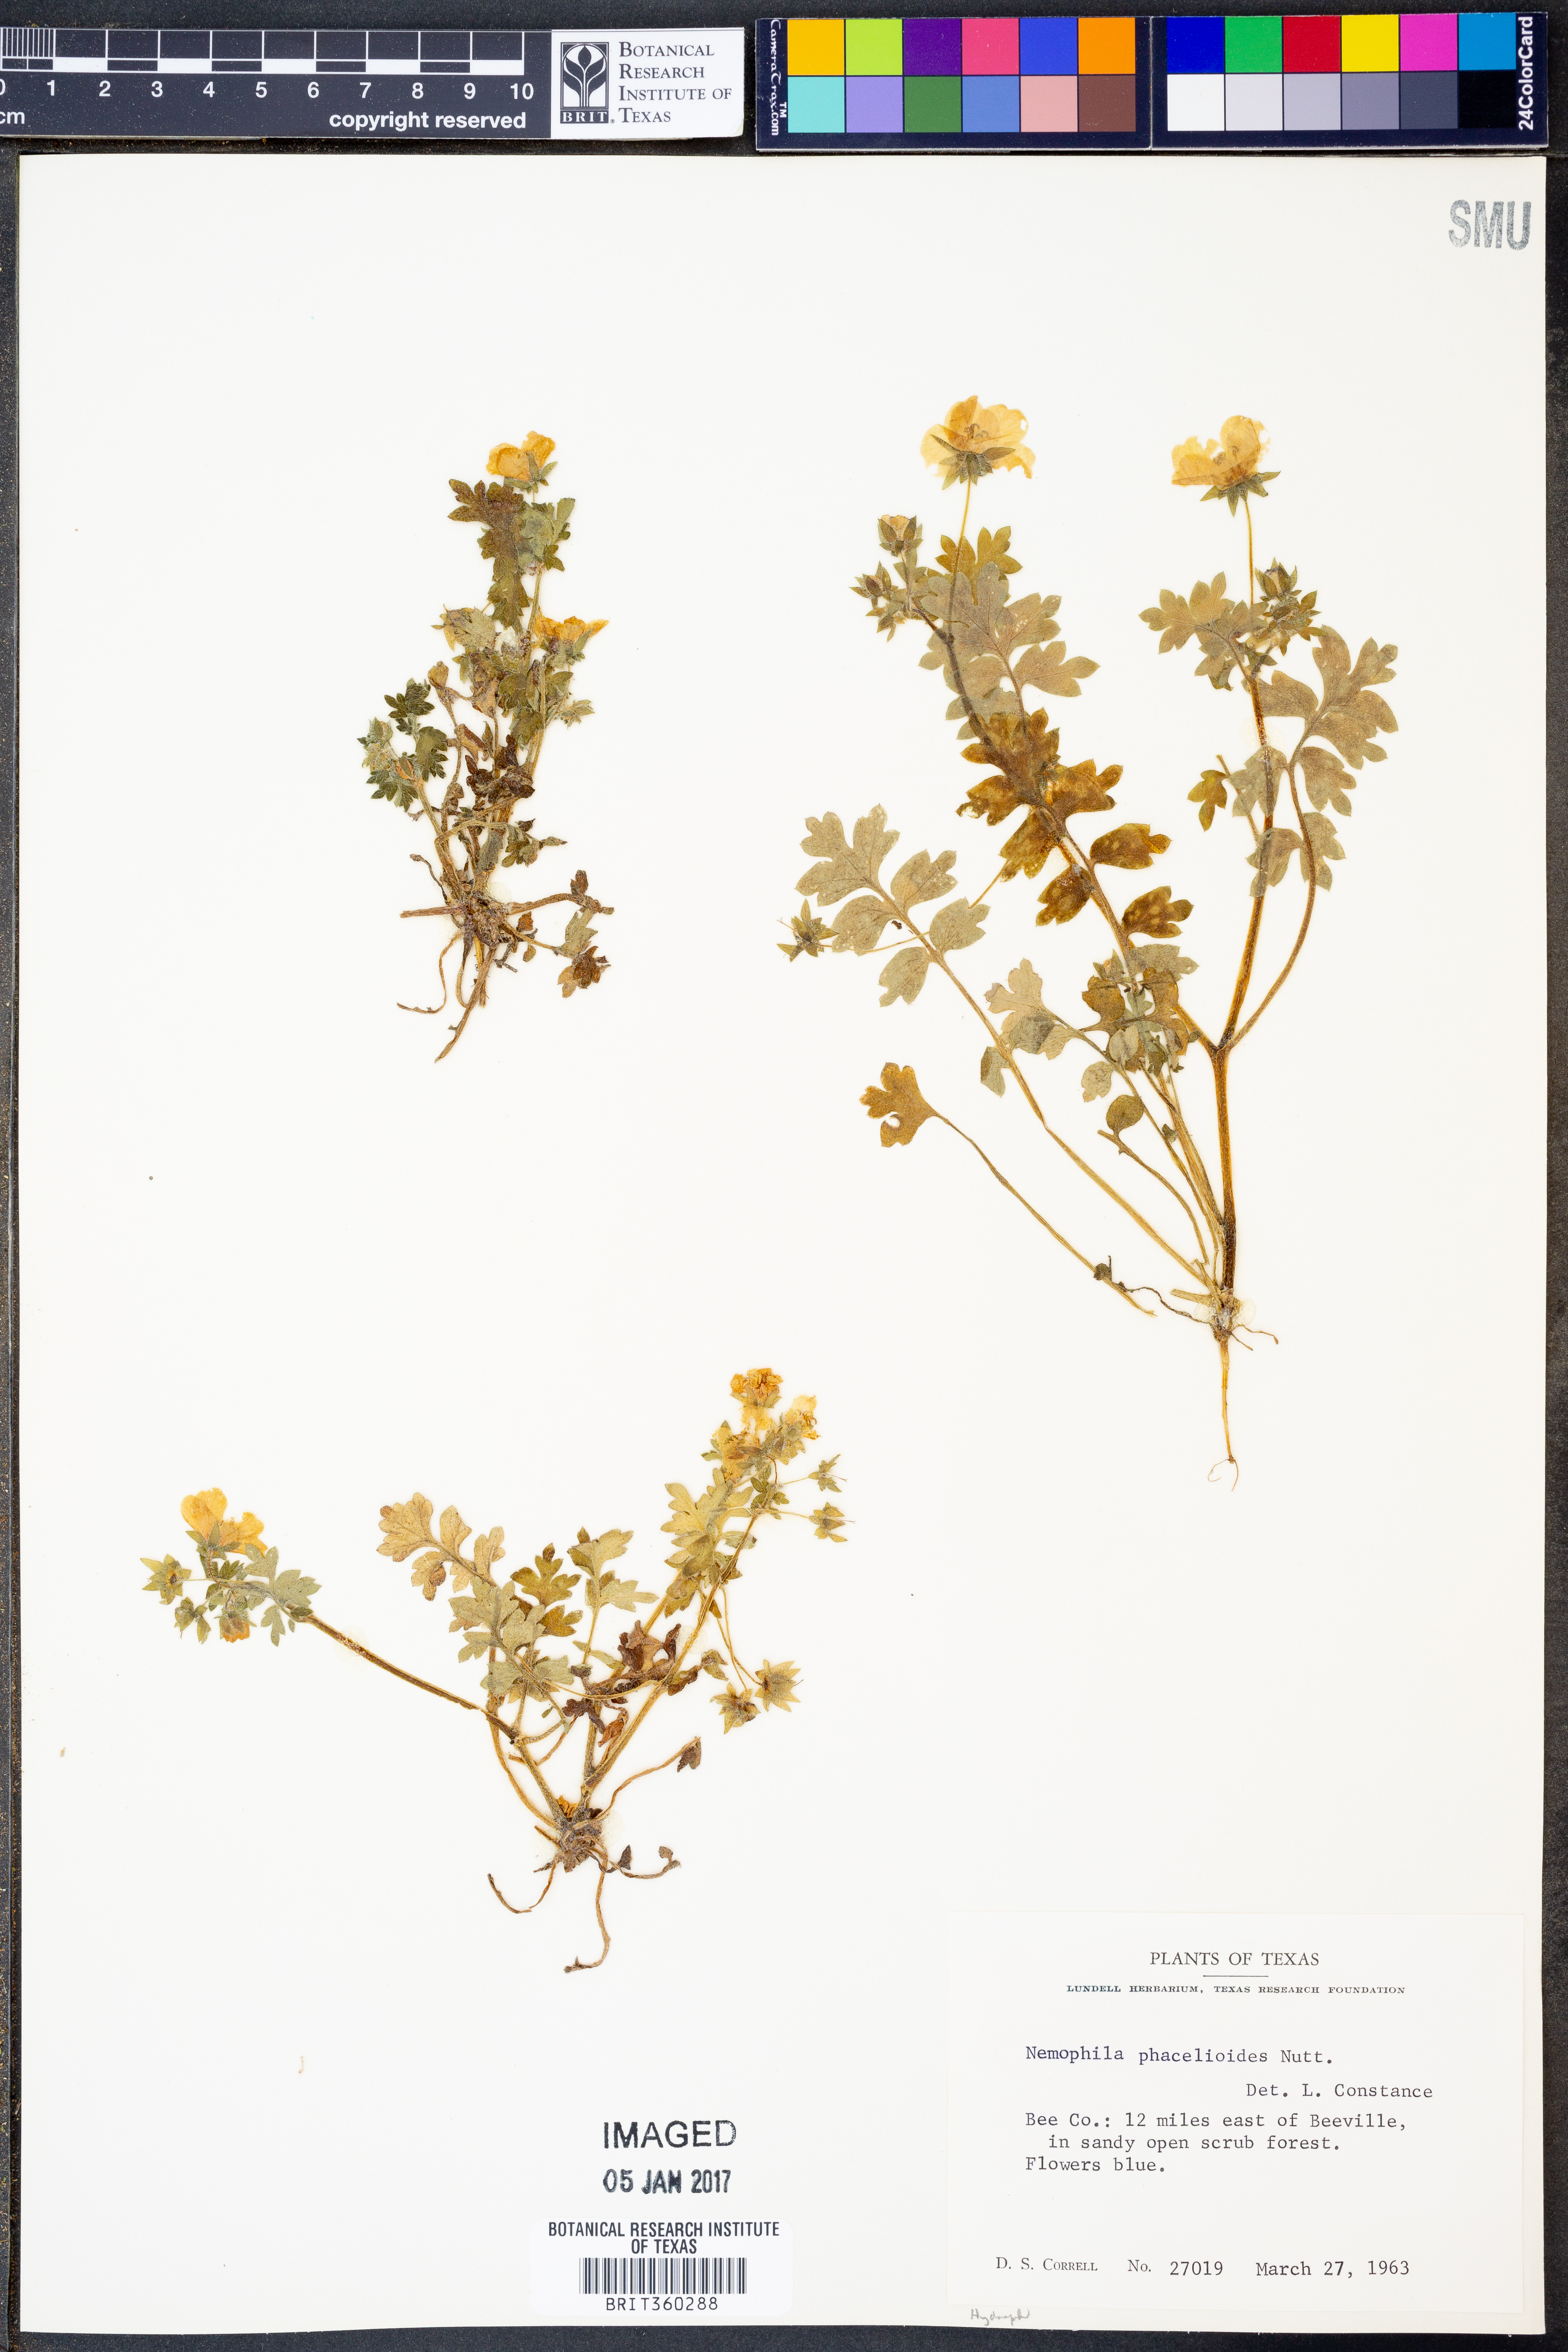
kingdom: Plantae
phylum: Tracheophyta
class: Magnoliopsida
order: Boraginales
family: Hydrophyllaceae
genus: Nemophila
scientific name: Nemophila phacelioides
